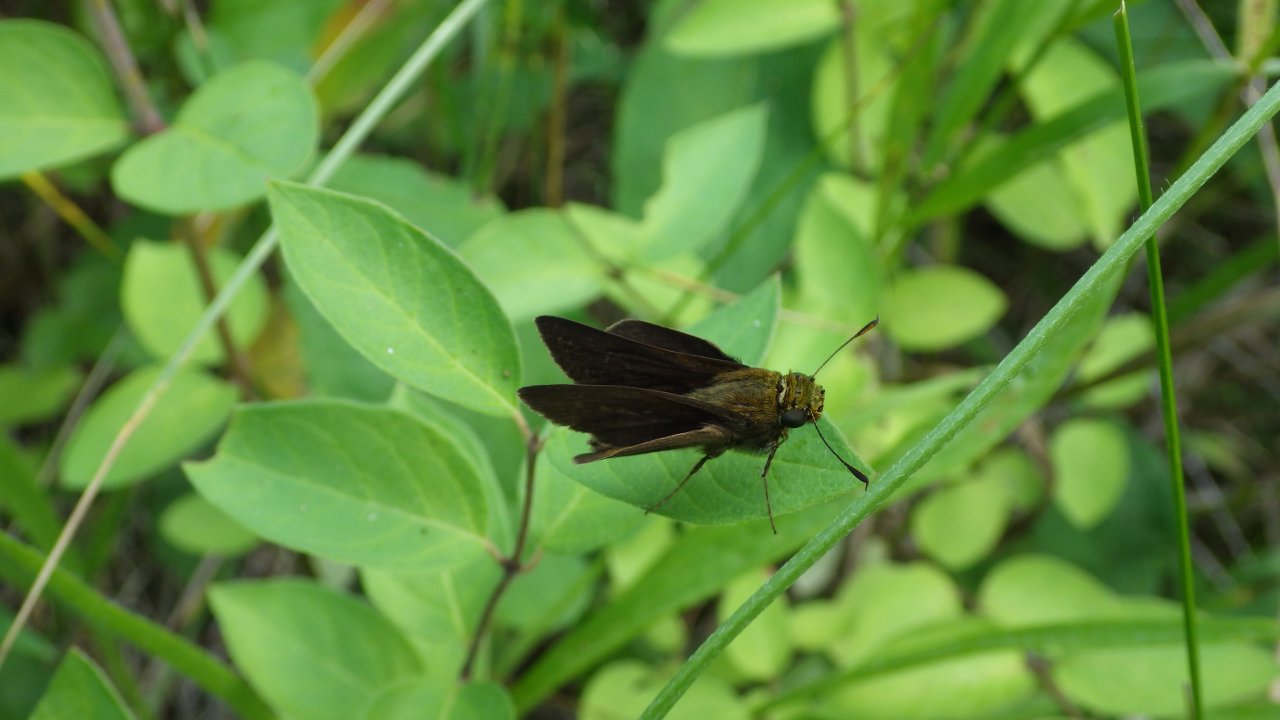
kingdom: Animalia
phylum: Arthropoda
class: Insecta
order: Lepidoptera
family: Hesperiidae
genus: Euphyes
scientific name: Euphyes vestris
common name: Dun Skipper
